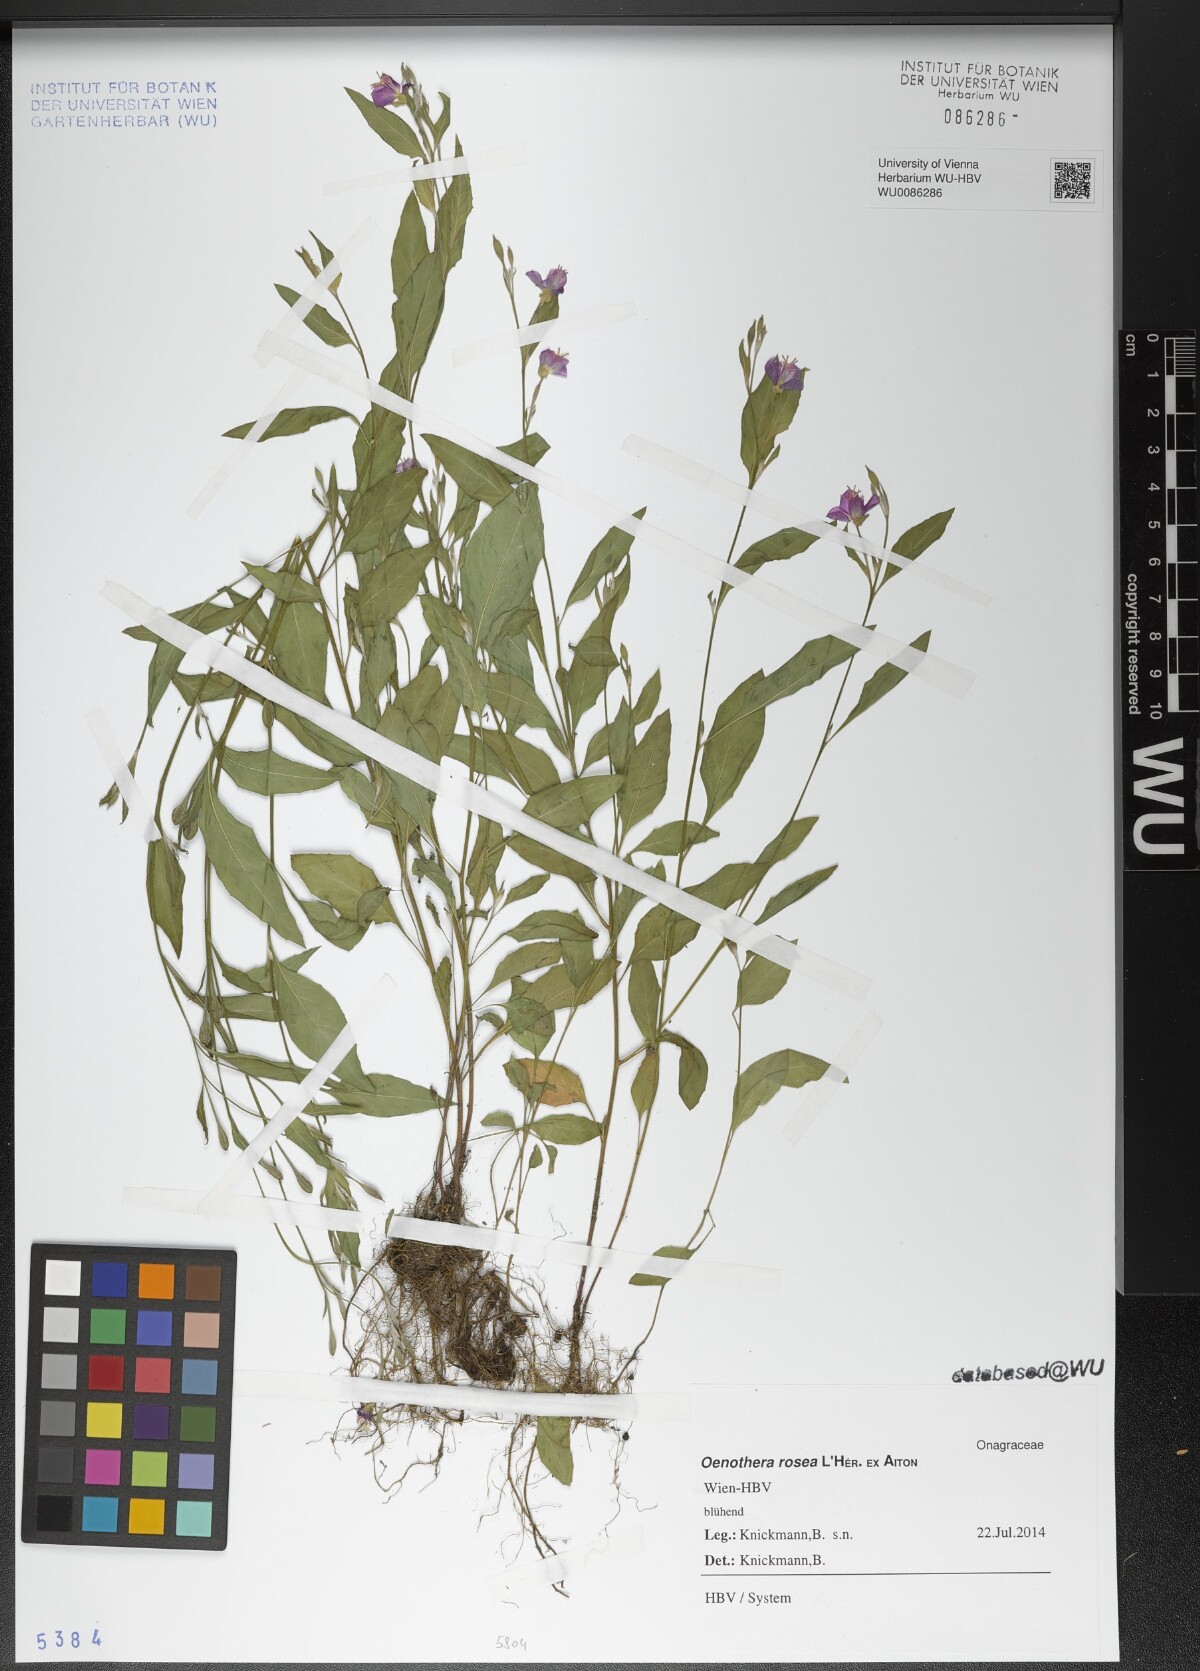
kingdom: Plantae
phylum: Tracheophyta
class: Magnoliopsida
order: Myrtales
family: Onagraceae
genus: Oenothera
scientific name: Oenothera rosea
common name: Rosy evening-primrose
